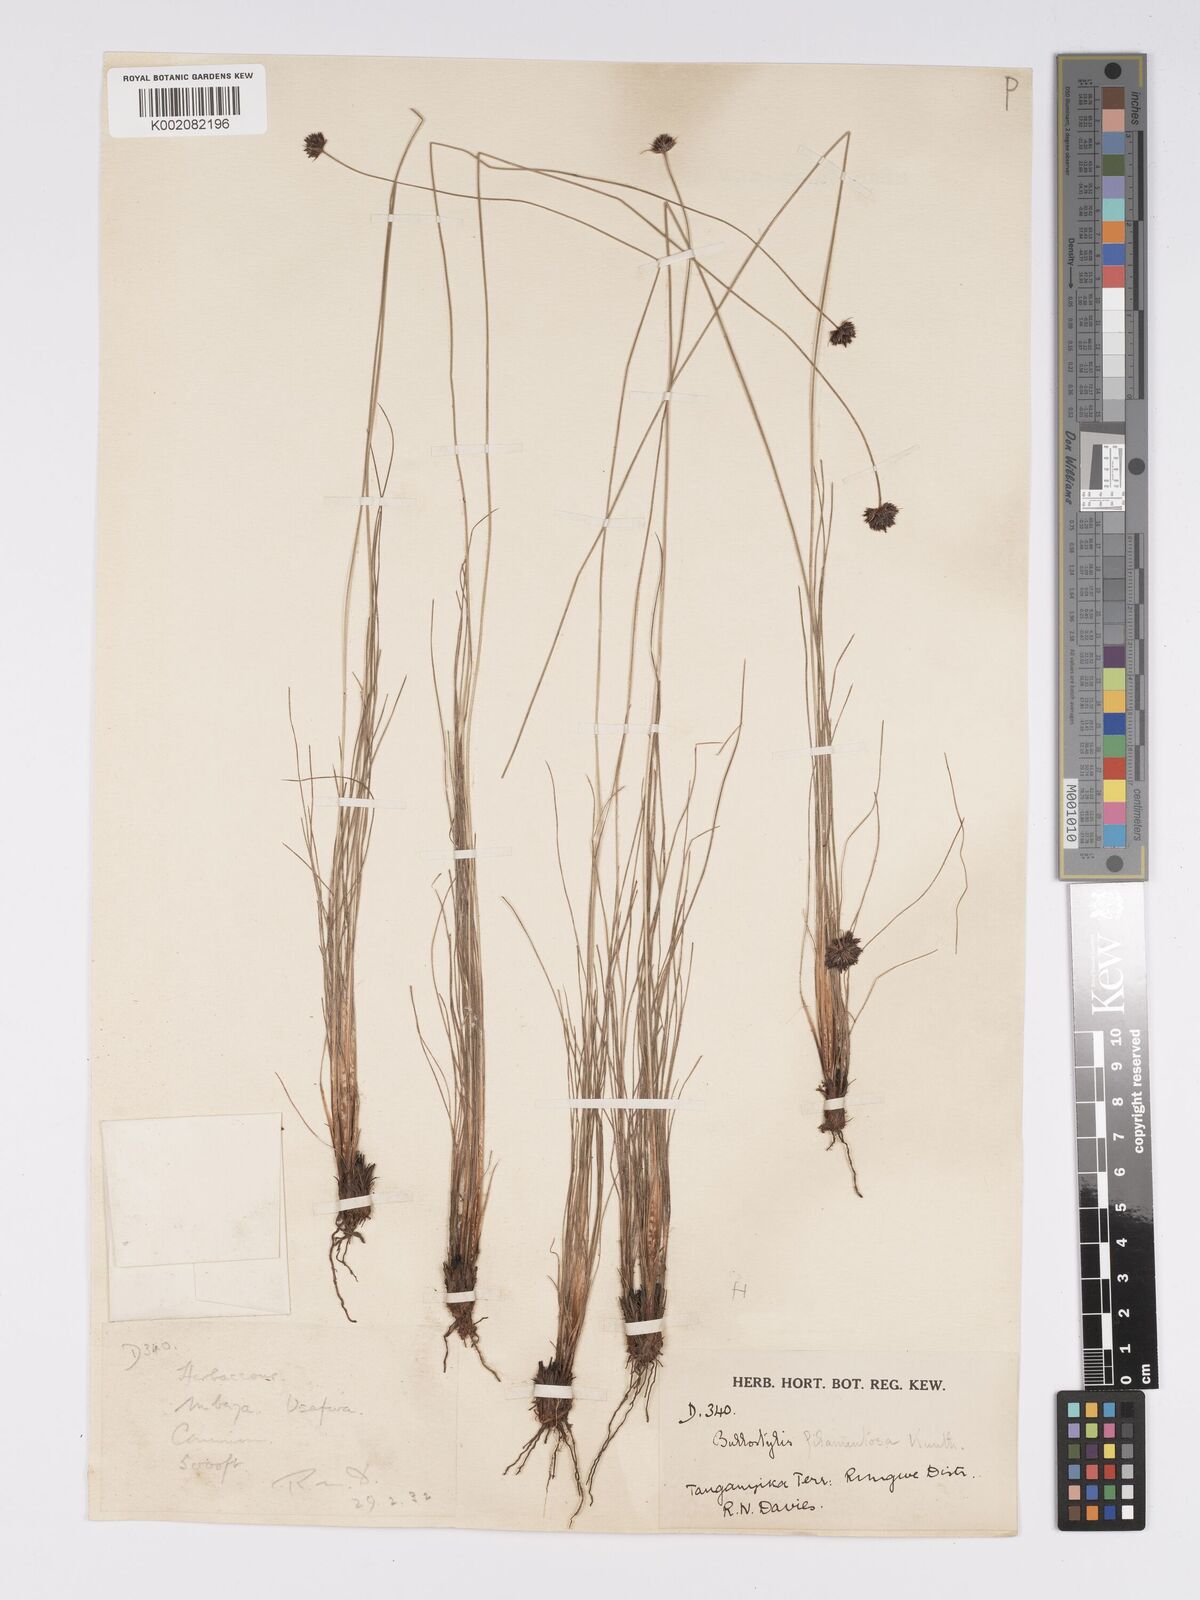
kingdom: Plantae
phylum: Tracheophyta
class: Liliopsida
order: Poales
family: Cyperaceae
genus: Bulbostylis
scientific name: Bulbostylis filamentosa
